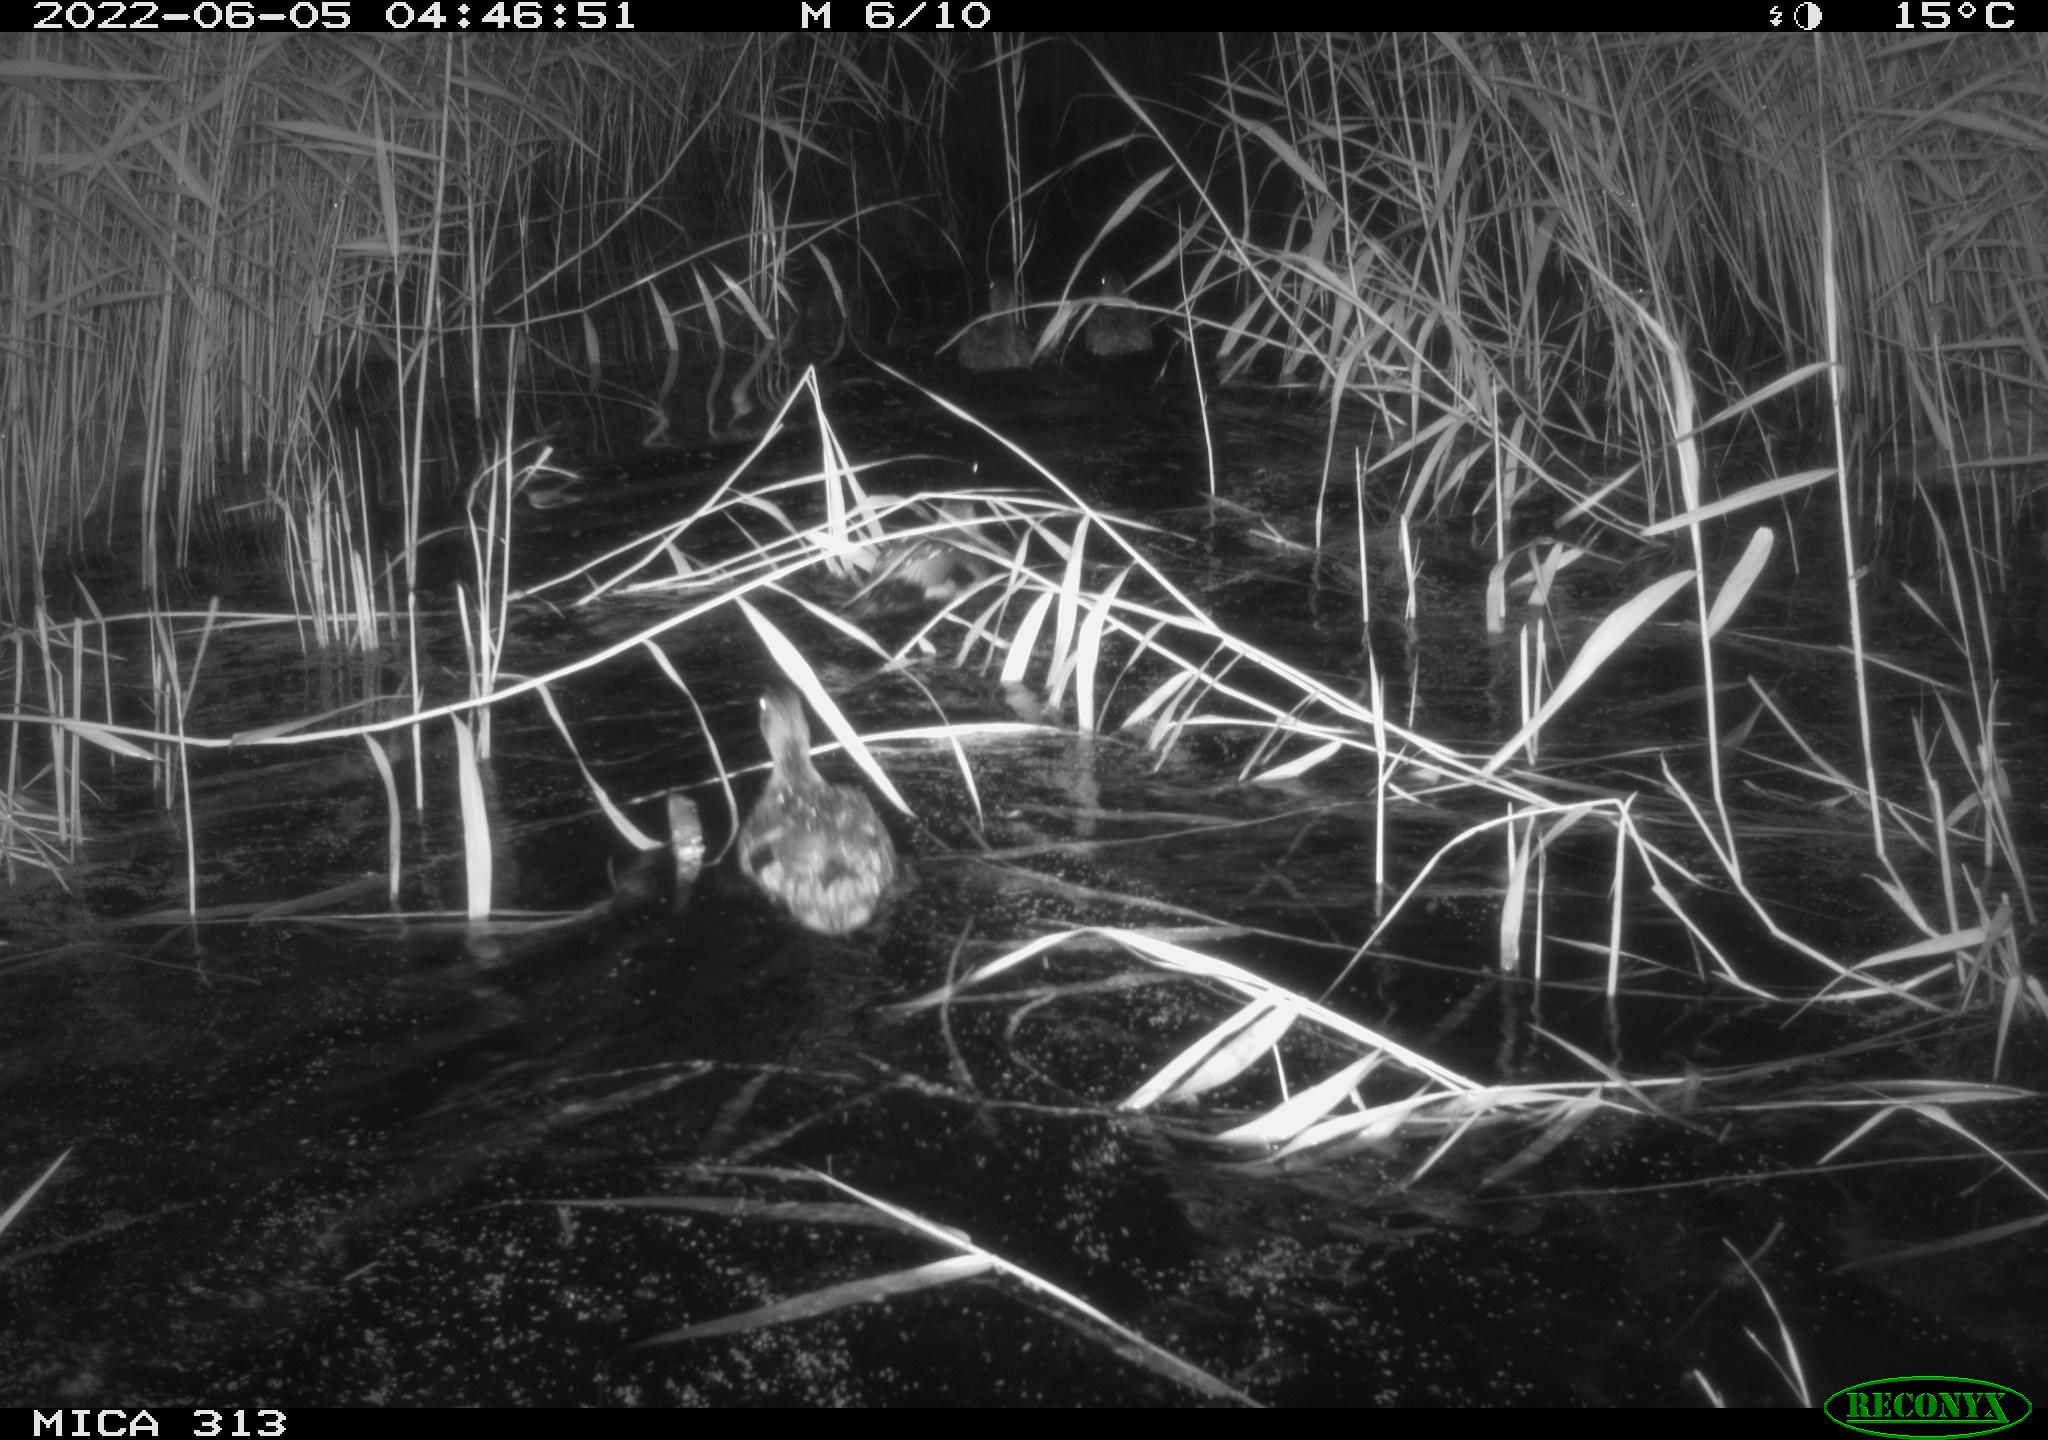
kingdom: Animalia
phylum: Chordata
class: Aves
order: Anseriformes
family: Anatidae
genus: Anas
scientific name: Anas platyrhynchos
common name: Mallard
